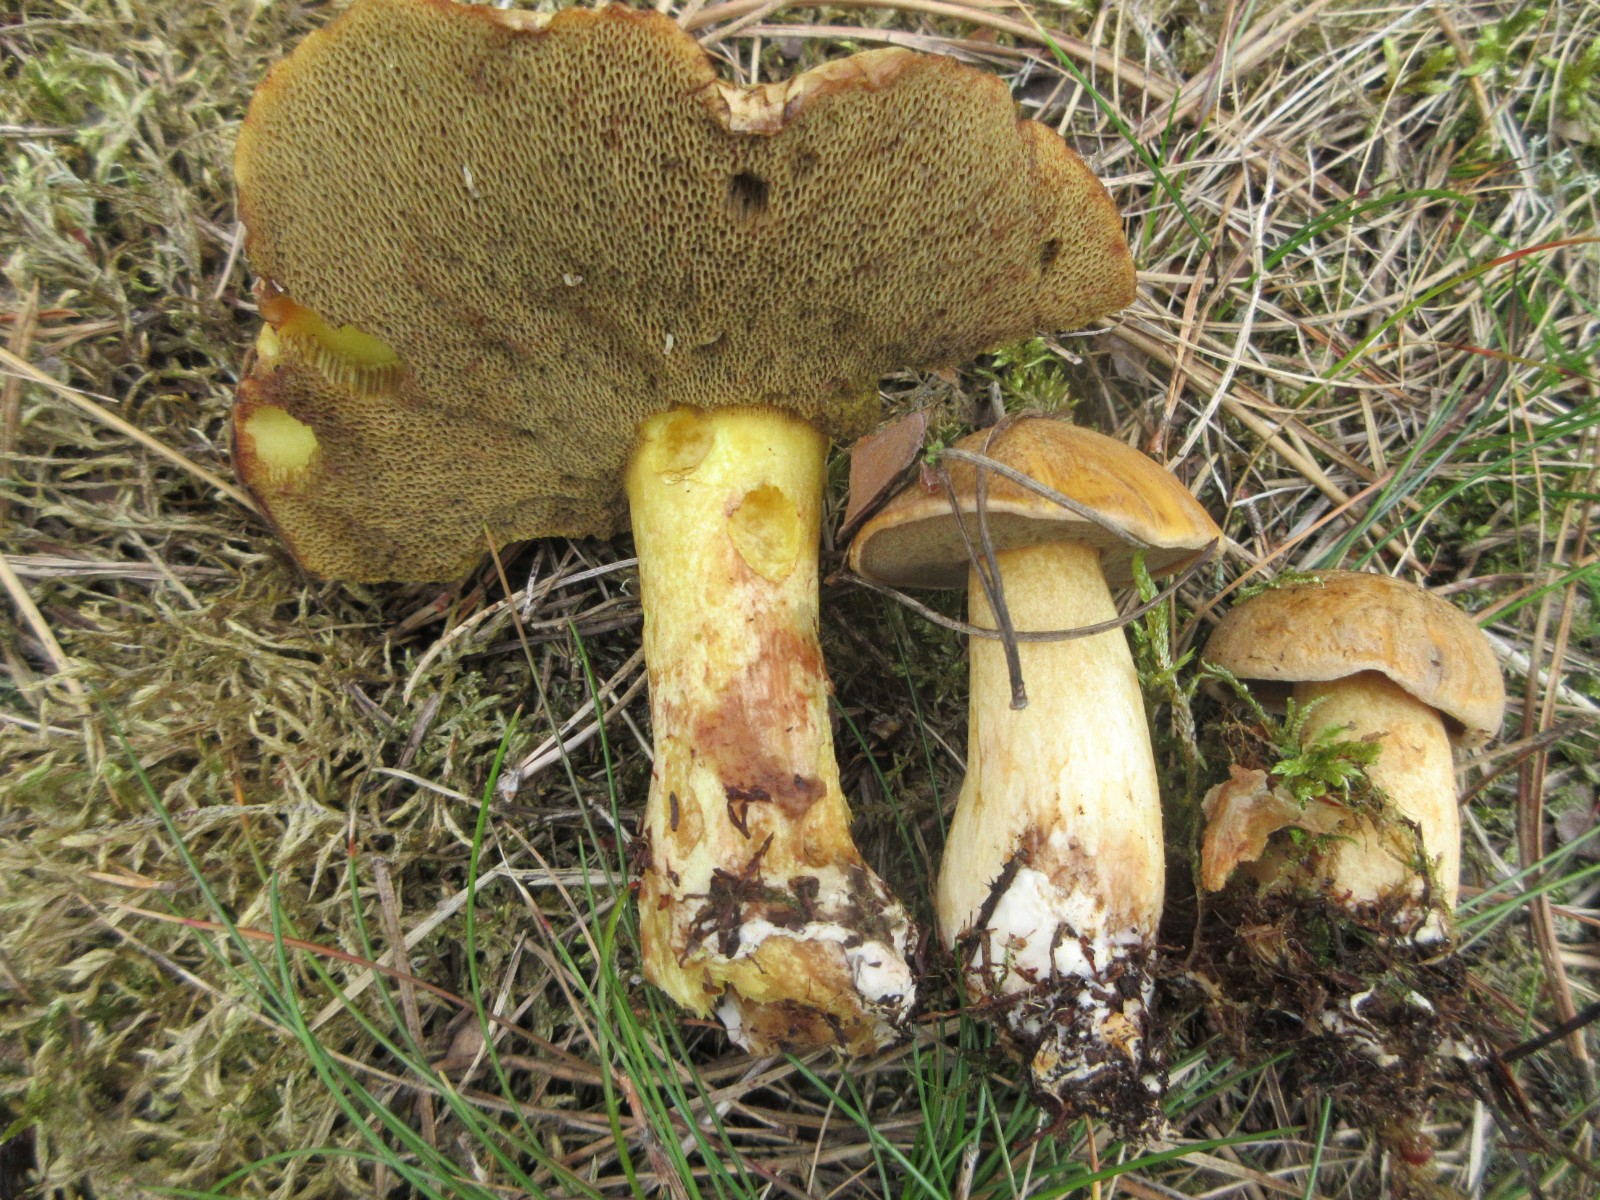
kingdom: Fungi
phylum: Basidiomycota
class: Agaricomycetes
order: Boletales
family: Suillaceae
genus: Suillus
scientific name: Suillus variegatus
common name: broget slimrørhat
